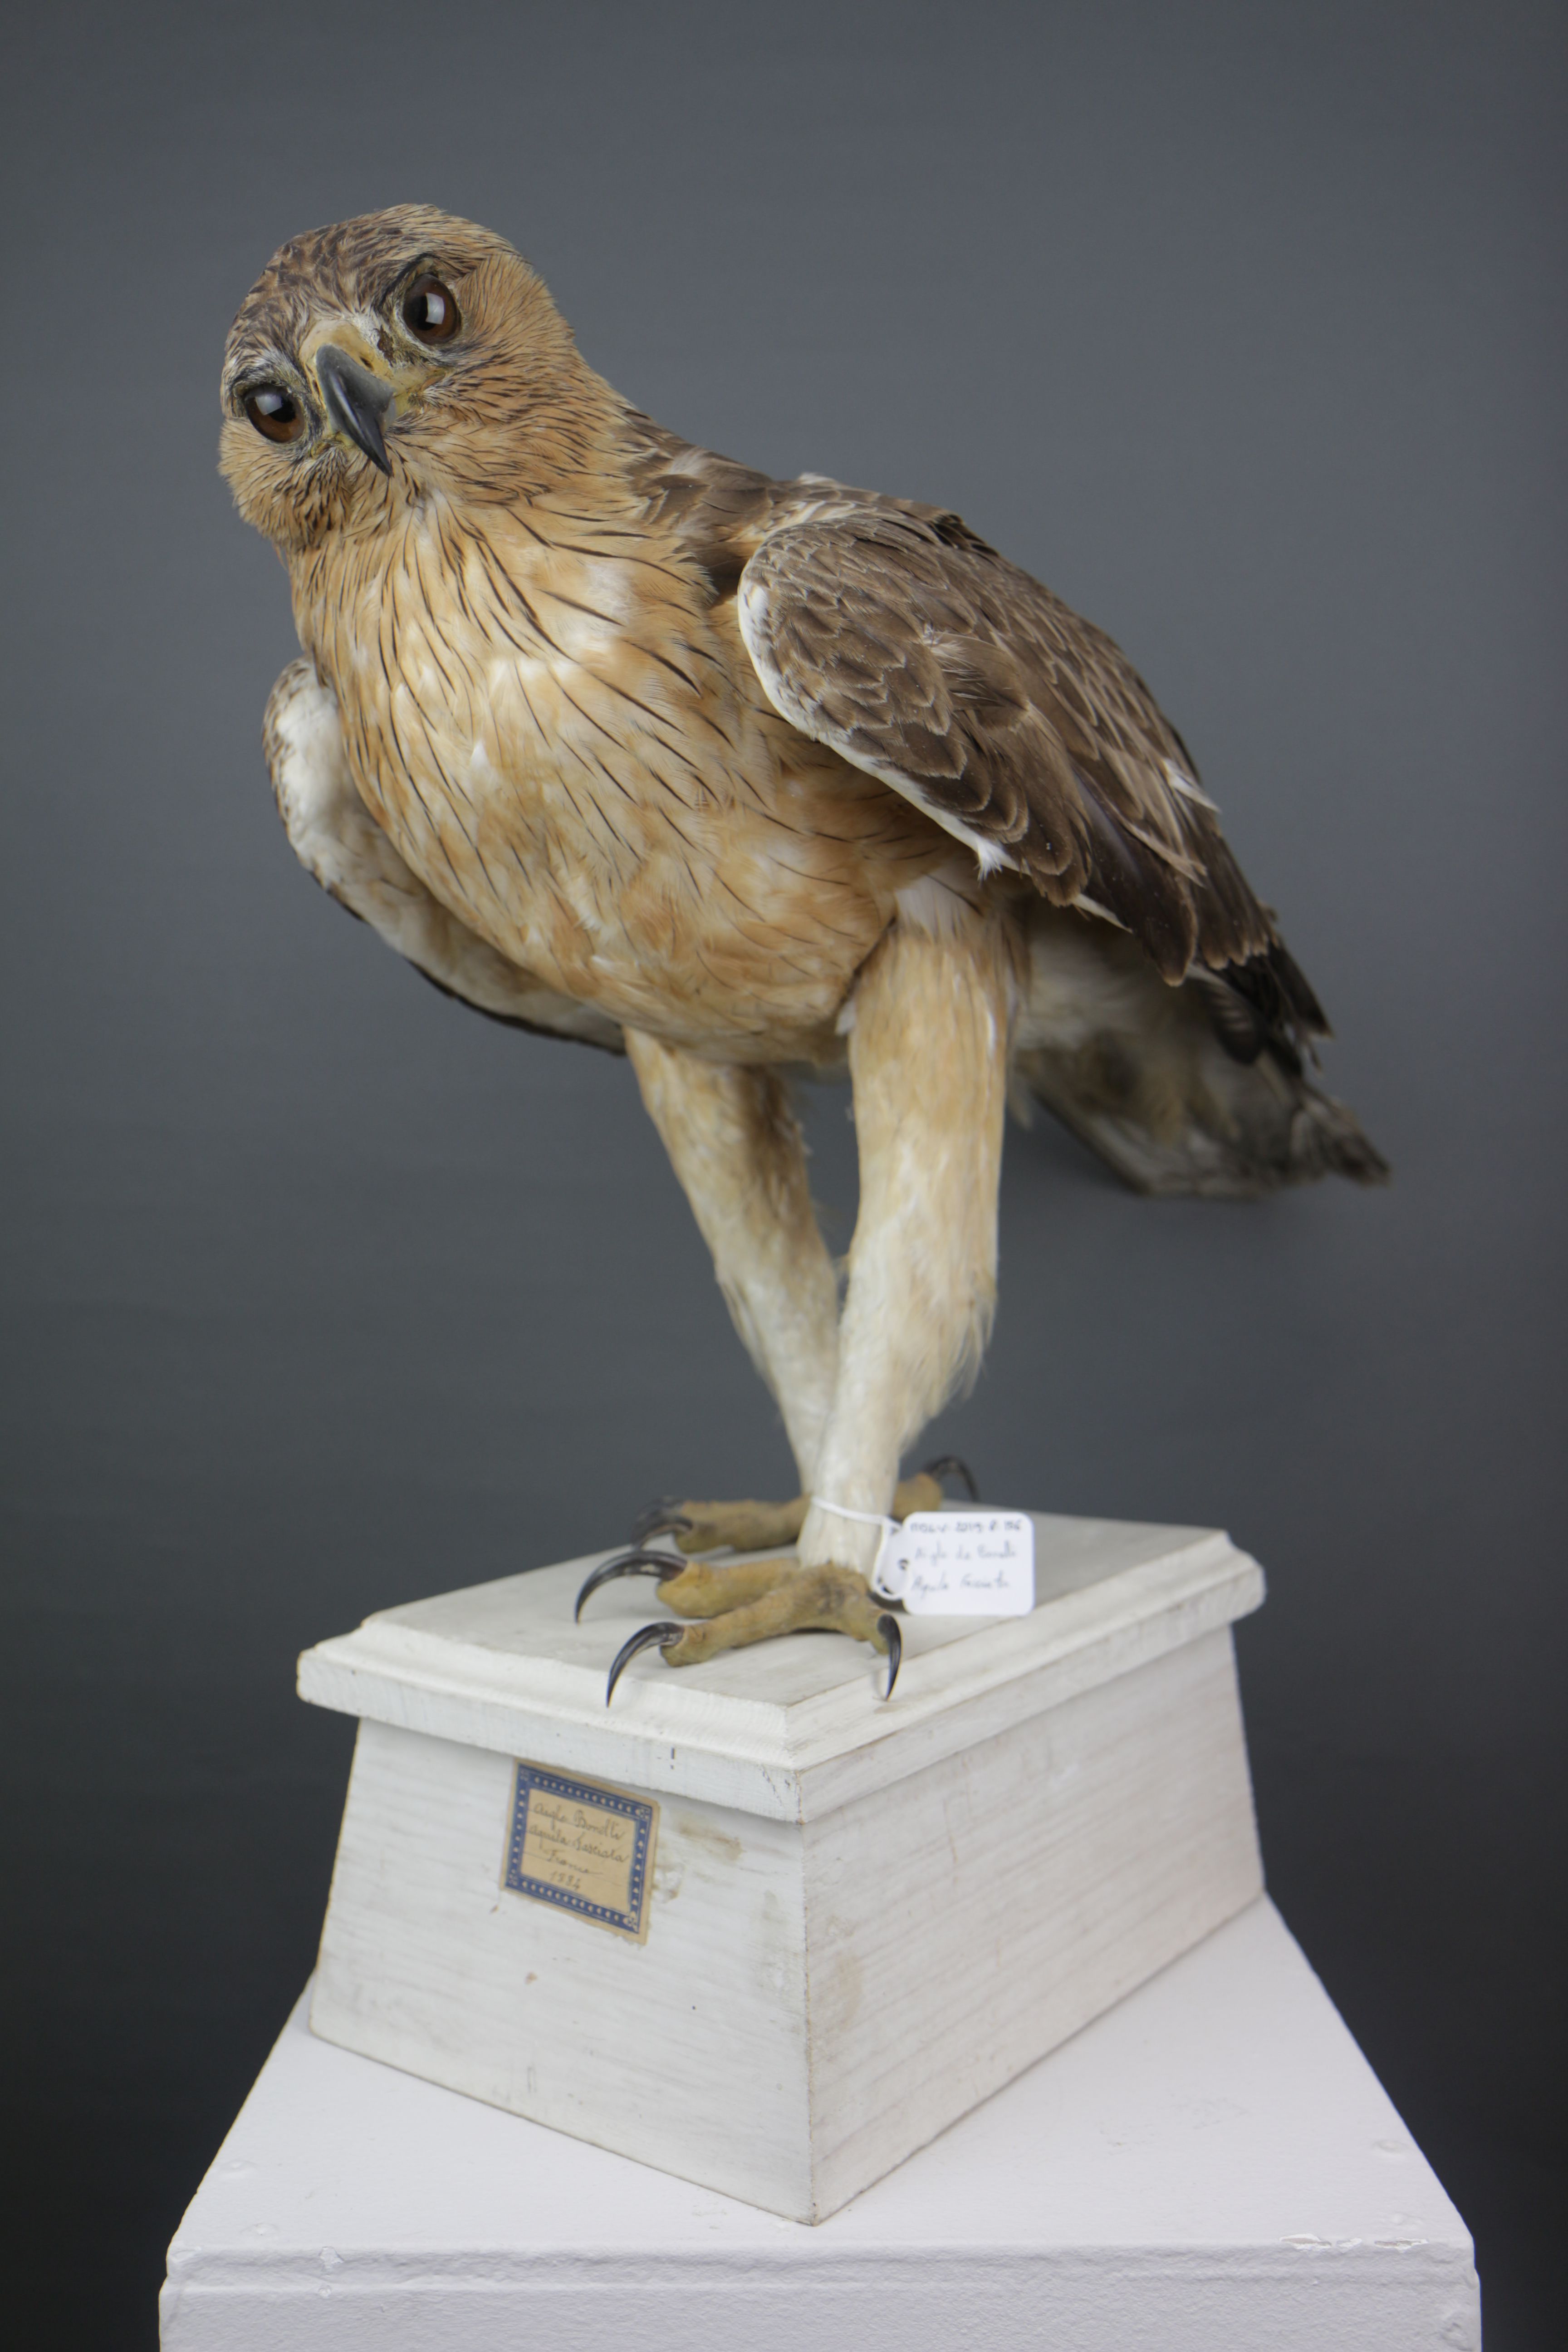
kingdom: Animalia
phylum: Chordata
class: Aves
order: Accipitriformes
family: Accipitridae
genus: Aquila
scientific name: Aquila fasciata
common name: Bonelli's eagle
